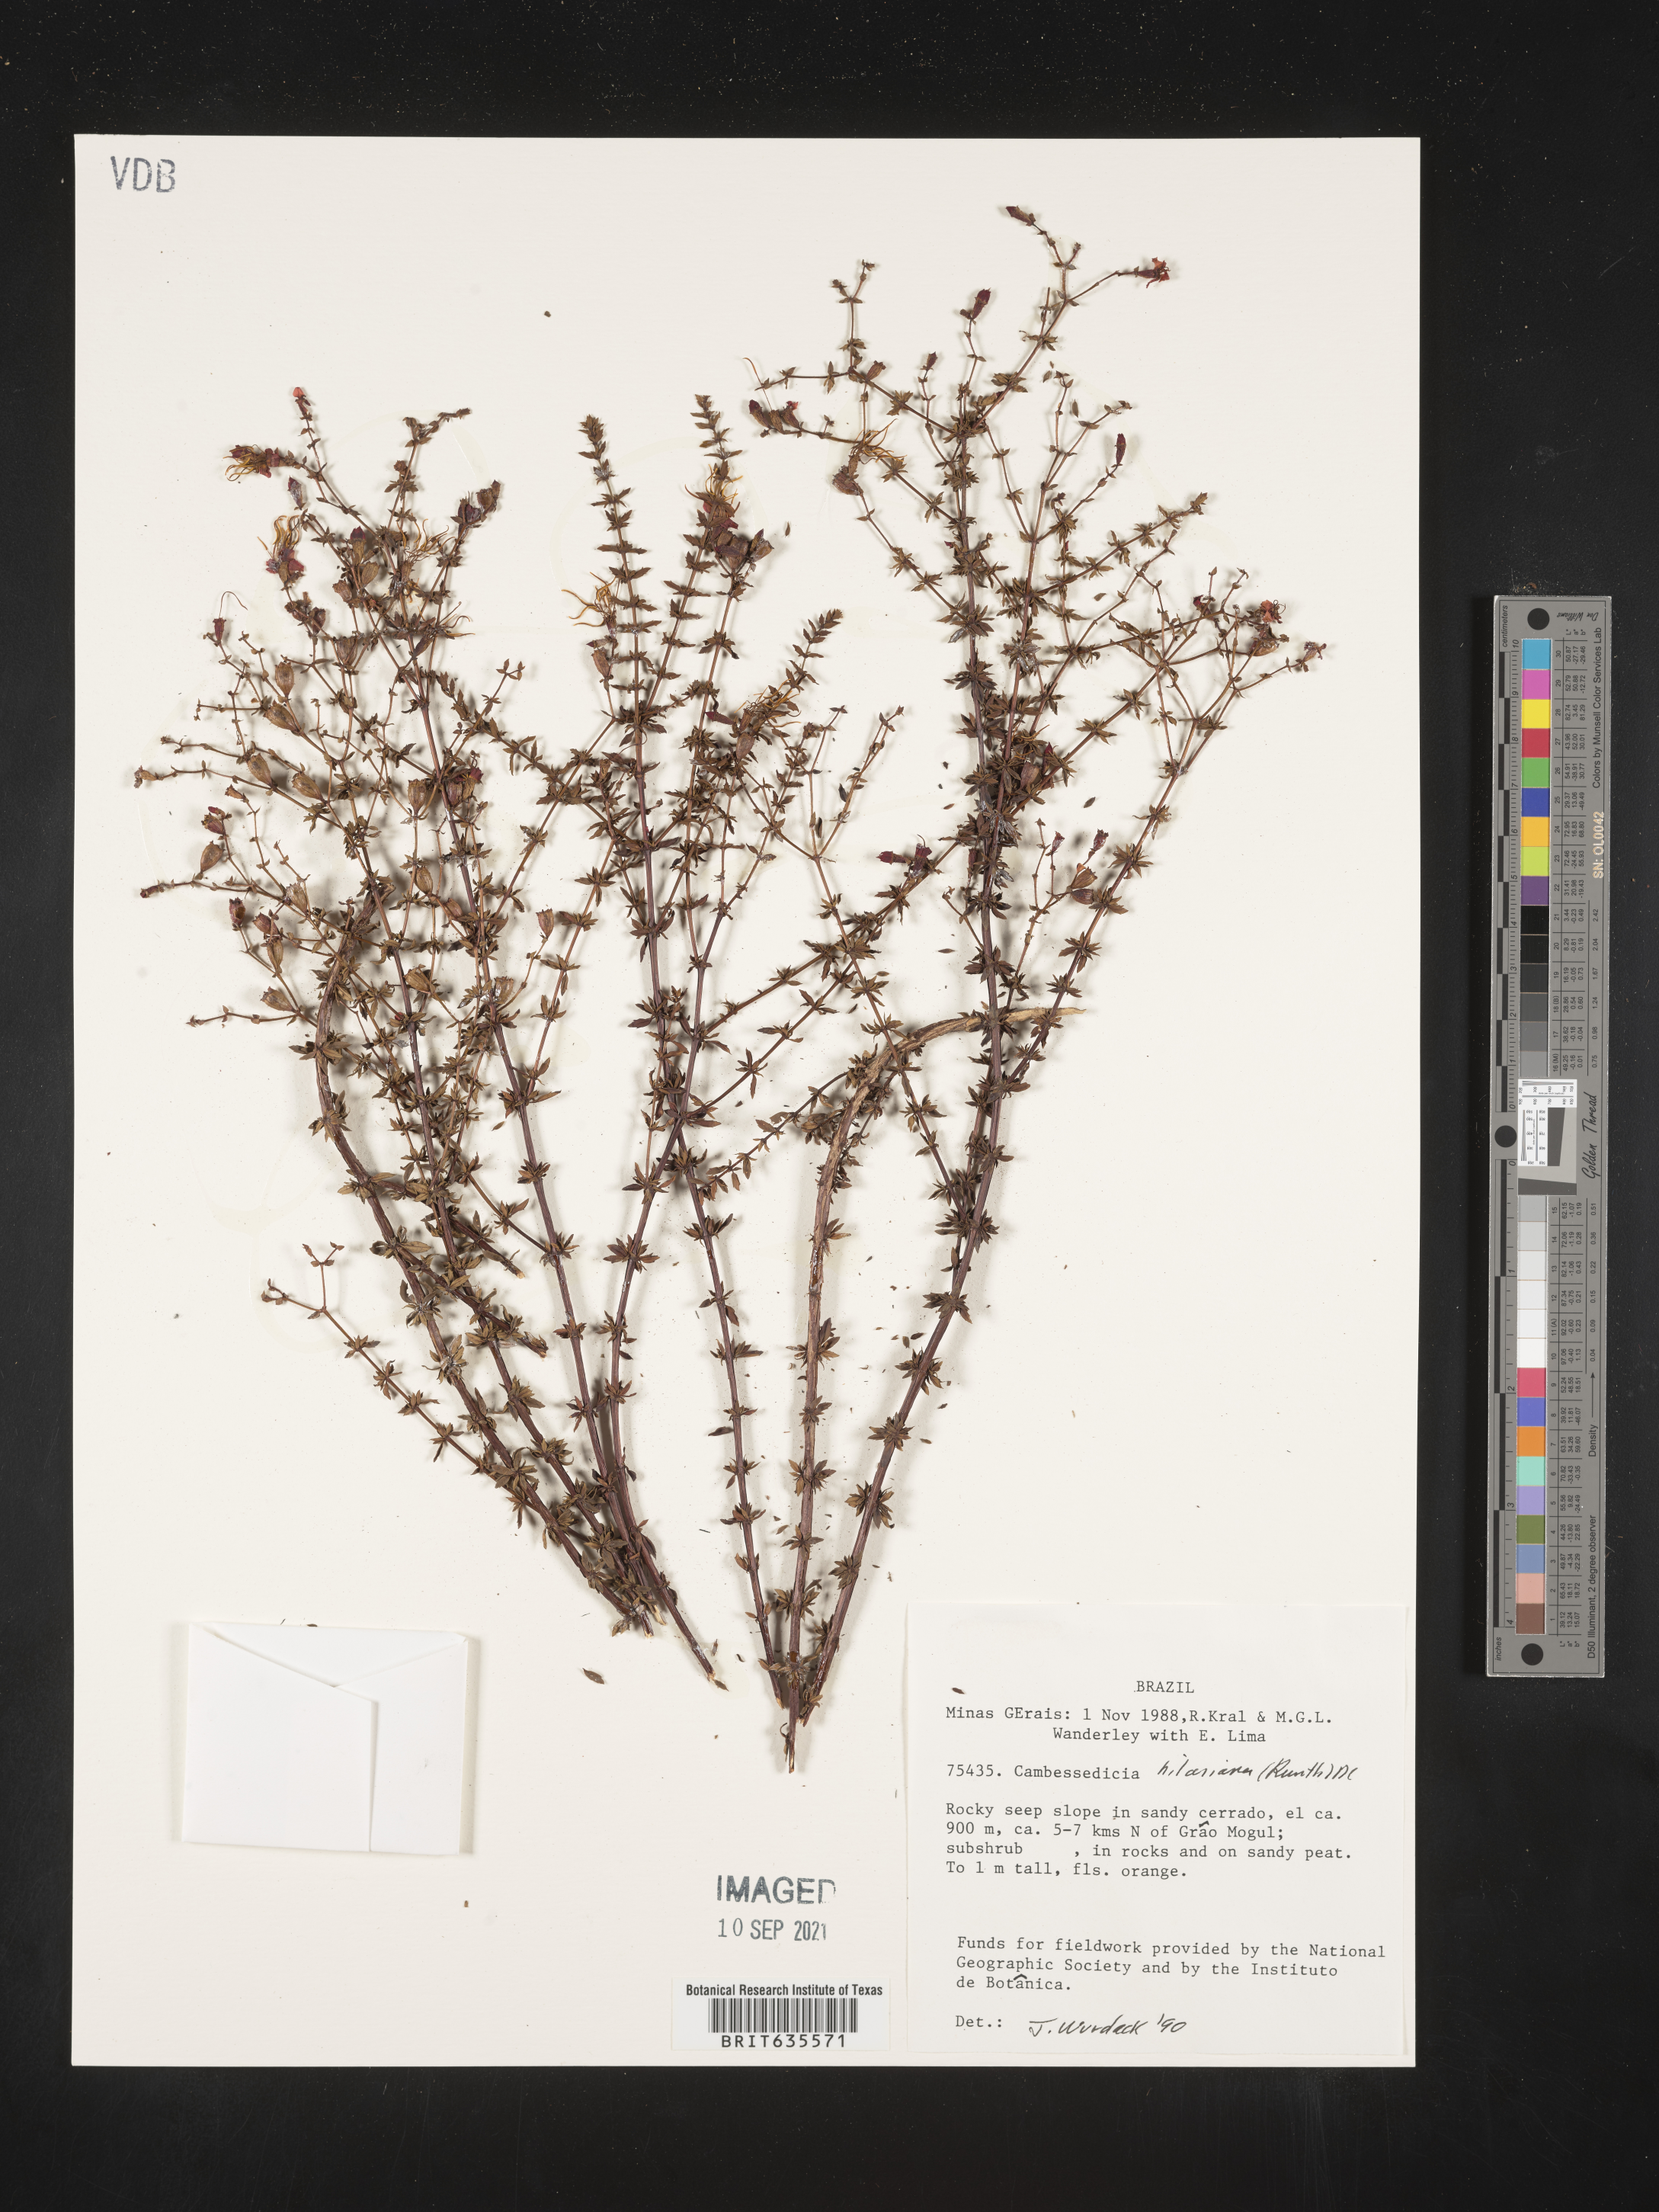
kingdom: Plantae
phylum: Tracheophyta
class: Magnoliopsida
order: Myrtales
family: Melastomataceae
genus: Cambessedesia
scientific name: Cambessedesia
